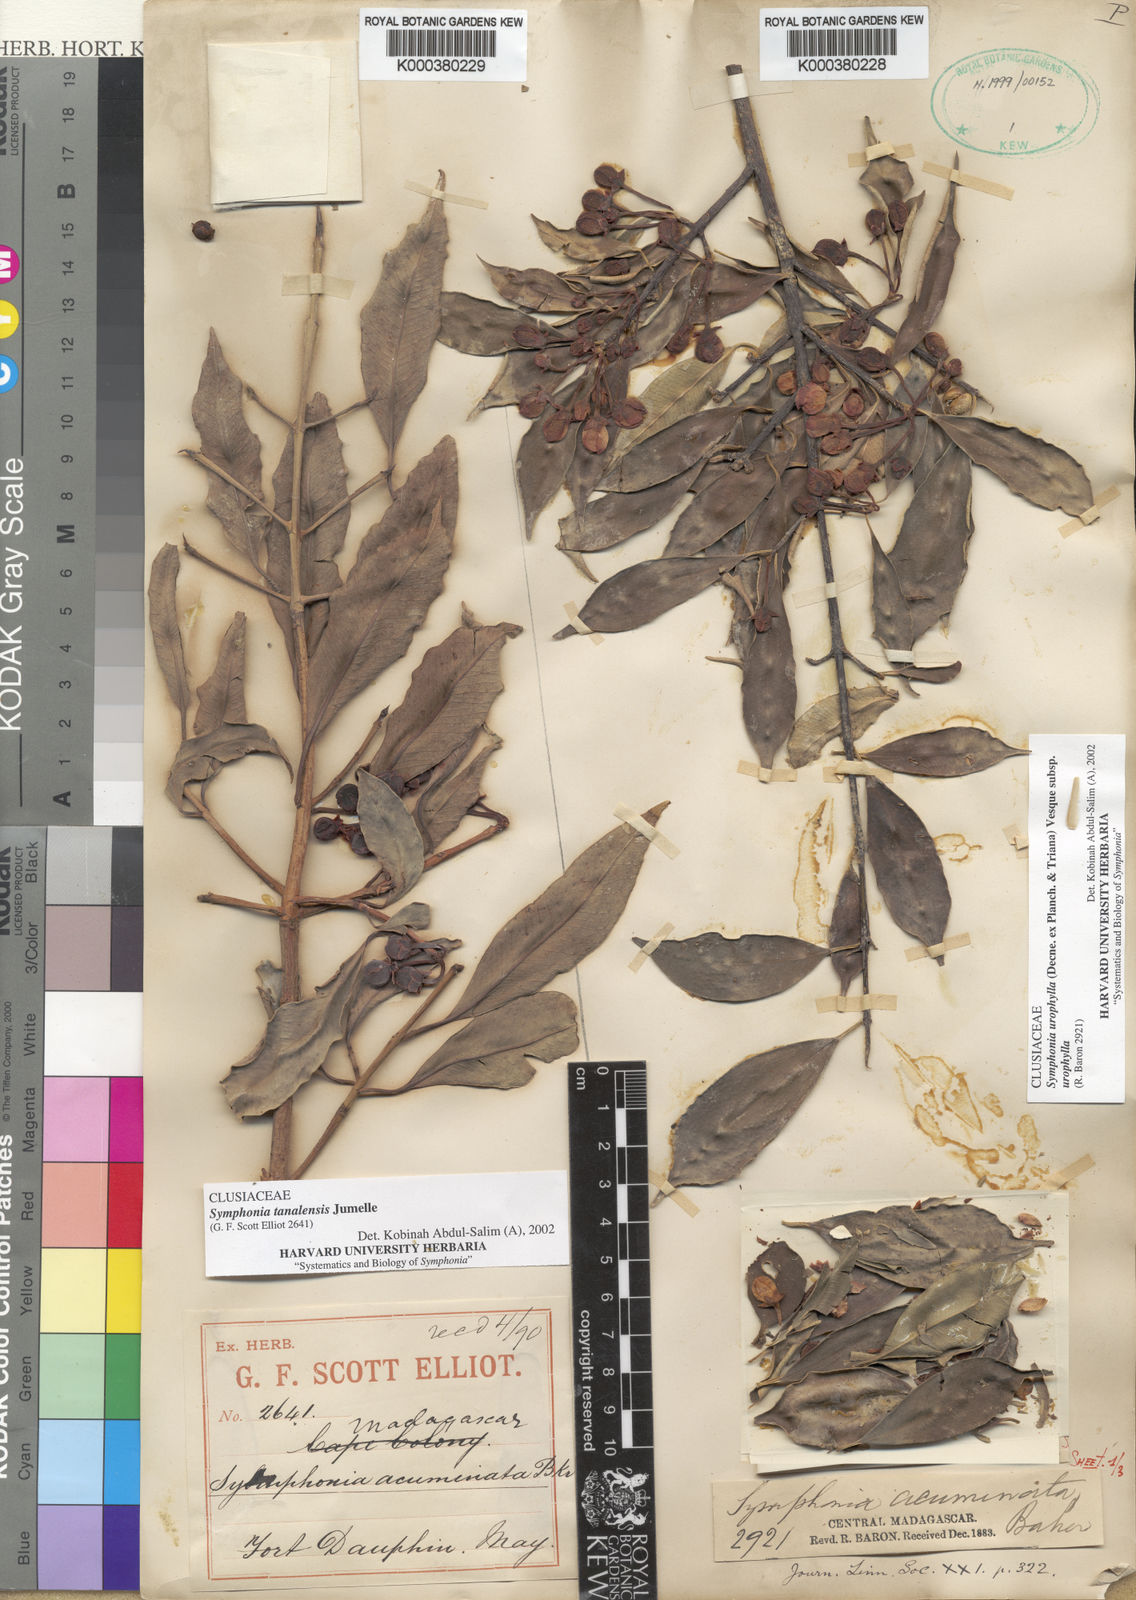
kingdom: Plantae
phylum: Tracheophyta
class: Magnoliopsida
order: Malpighiales
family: Clusiaceae
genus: Symphonia
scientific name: Symphonia tanalensis
